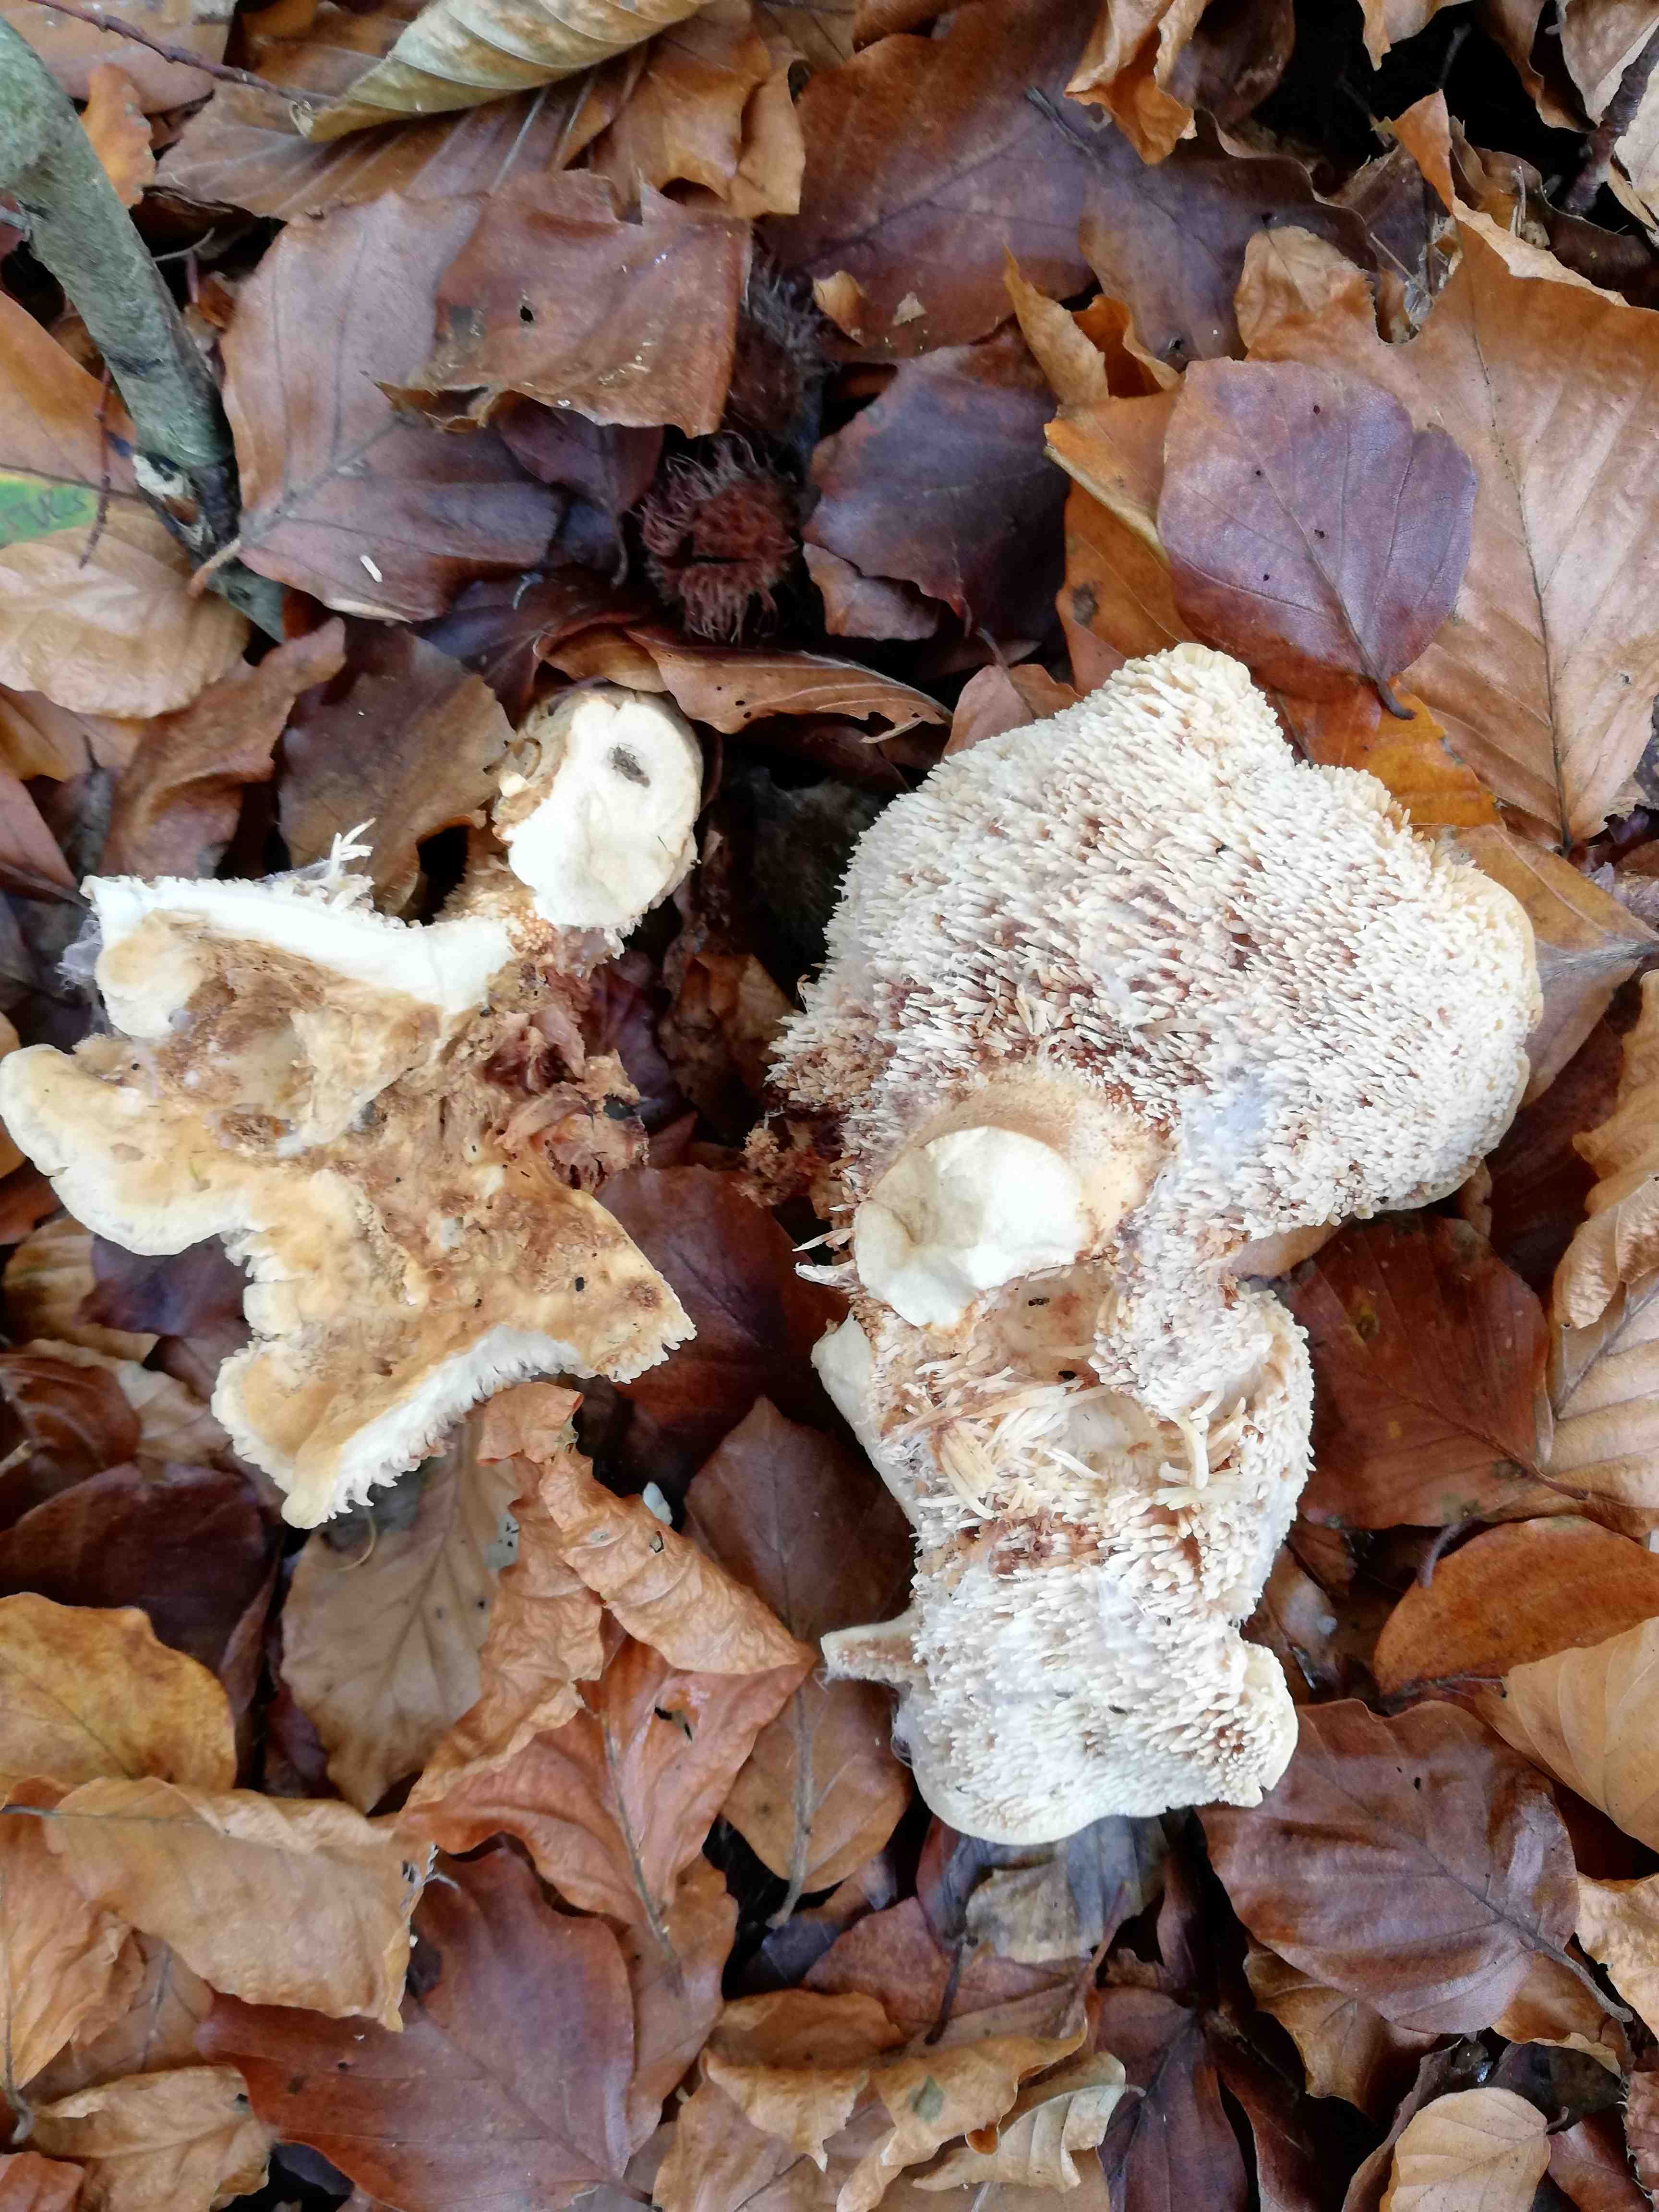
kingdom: Fungi
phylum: Basidiomycota
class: Agaricomycetes
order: Cantharellales
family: Hydnaceae
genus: Hydnum
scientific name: Hydnum repandum
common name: almindelig pigsvamp
